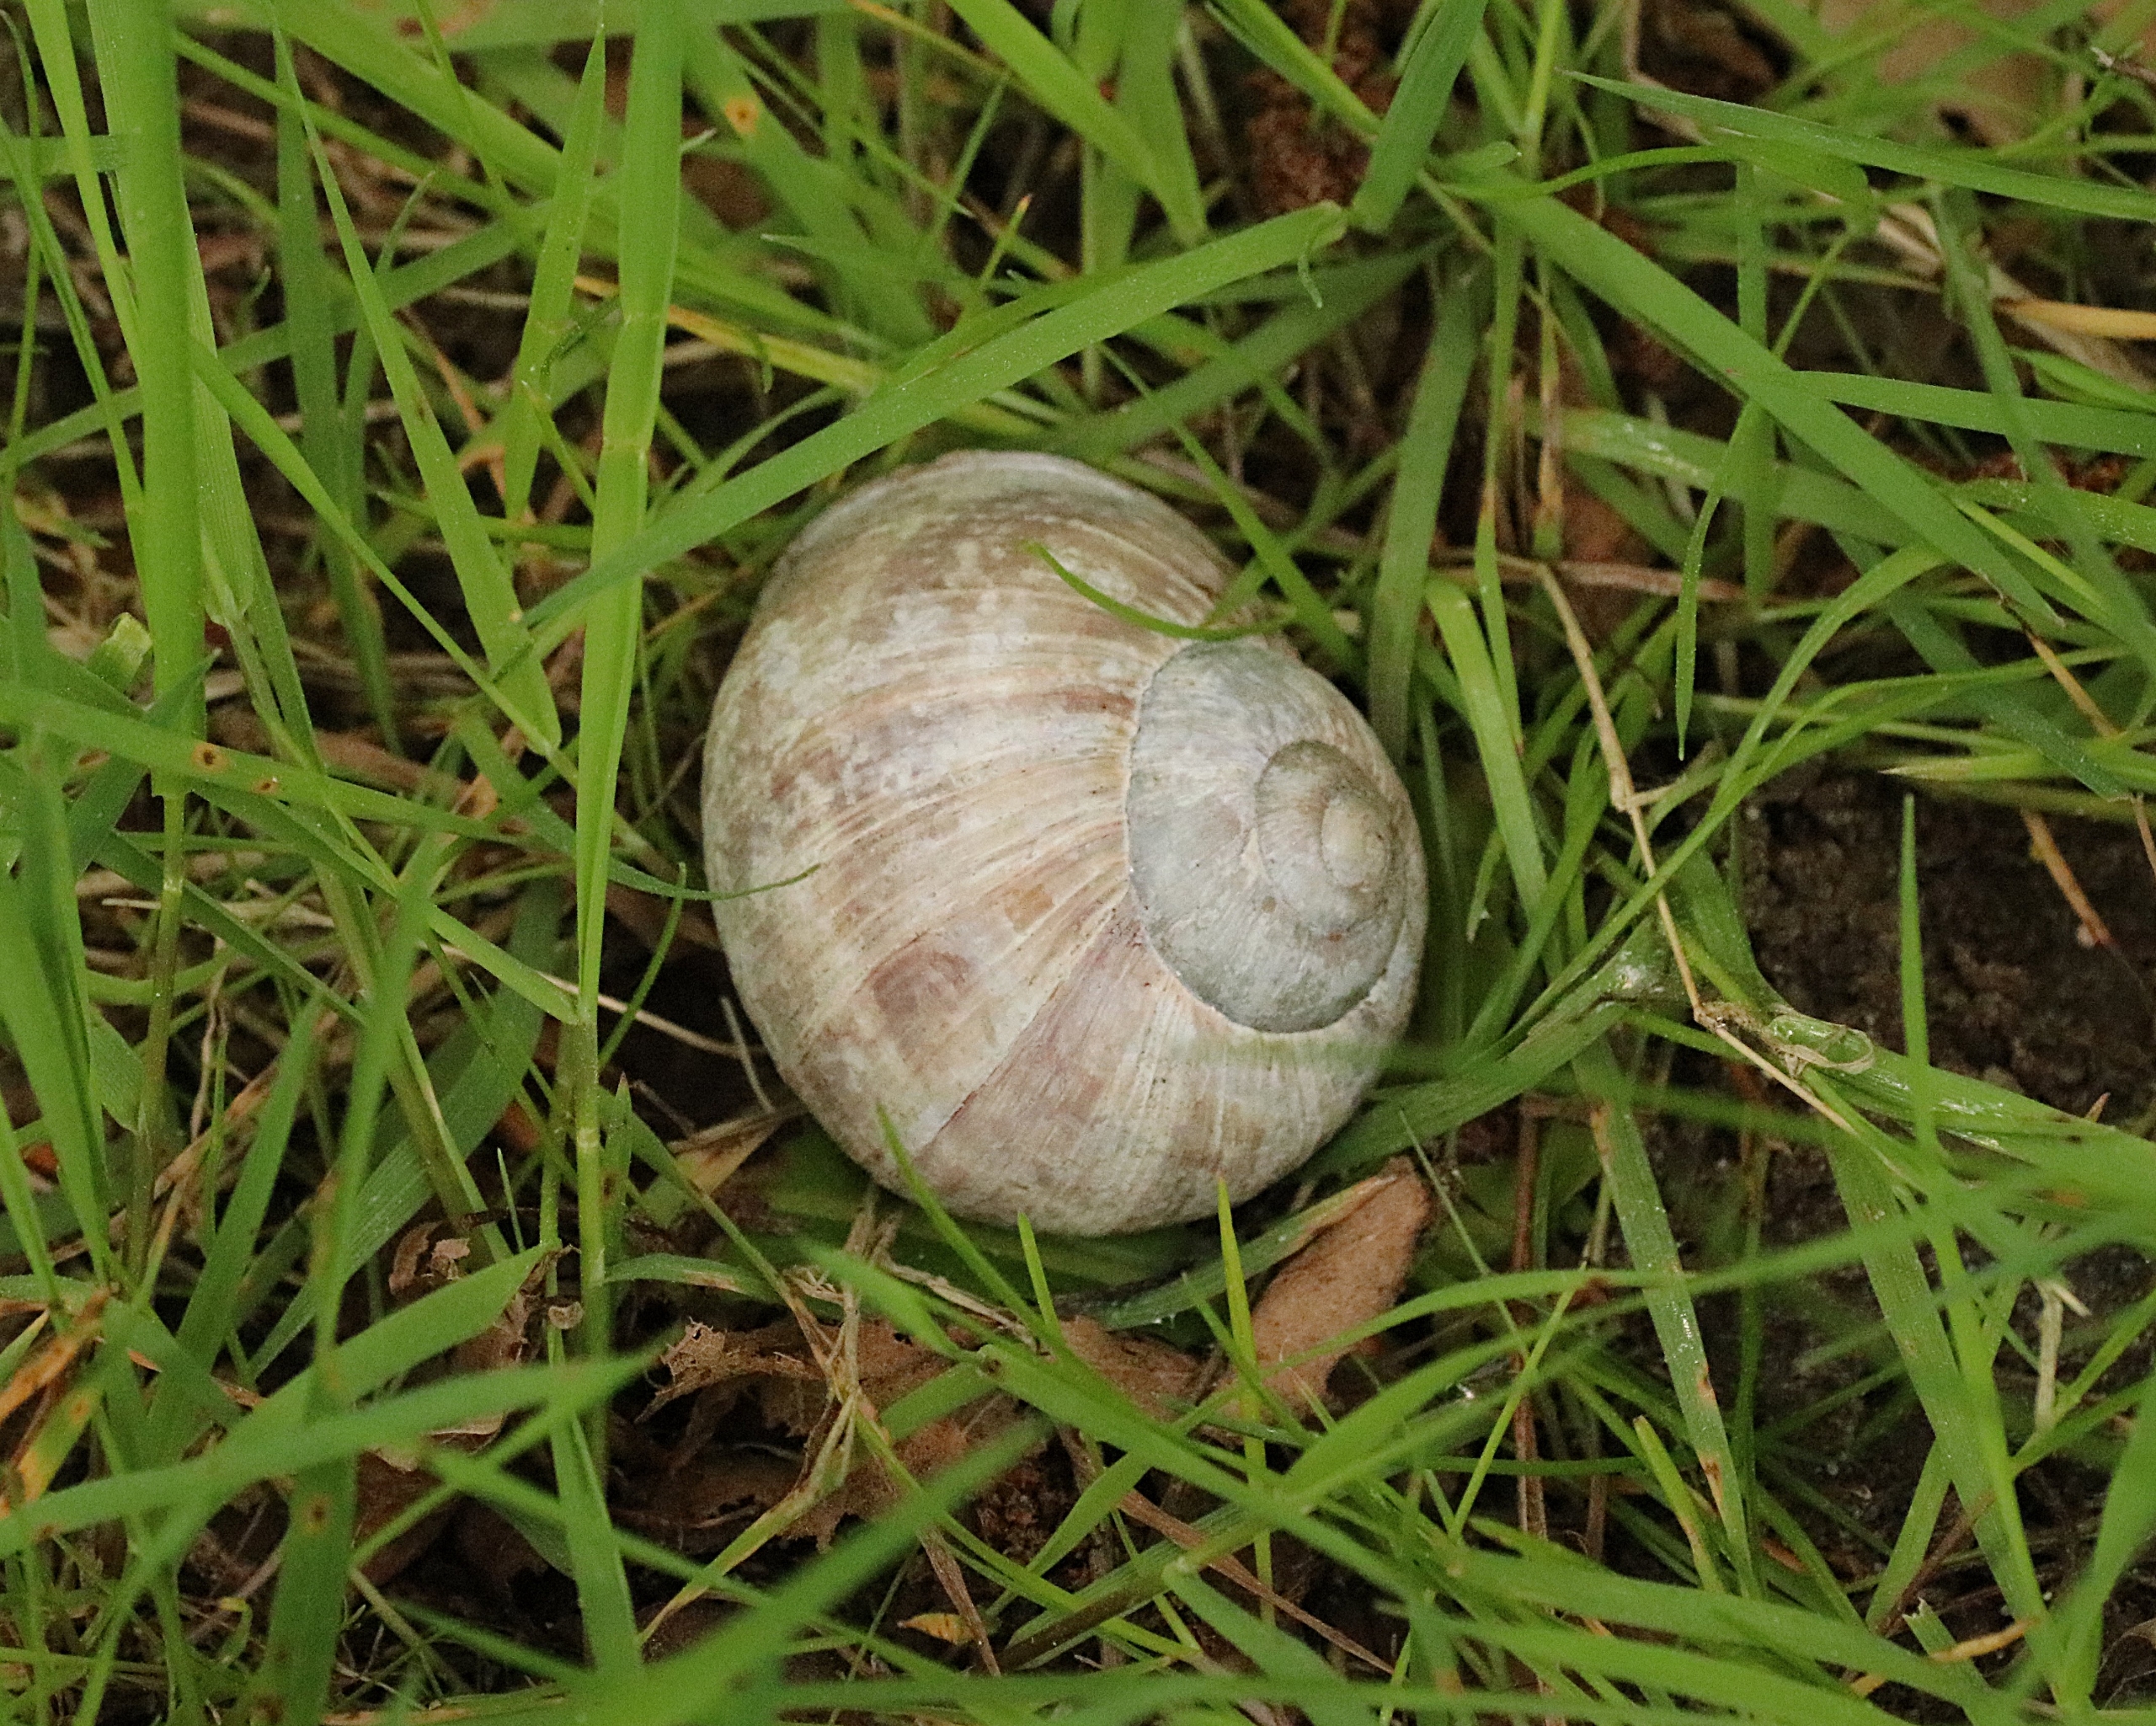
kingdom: Animalia
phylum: Mollusca
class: Gastropoda
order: Stylommatophora
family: Helicidae
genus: Helix
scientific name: Helix pomatia
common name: Vinbjergsnegl
